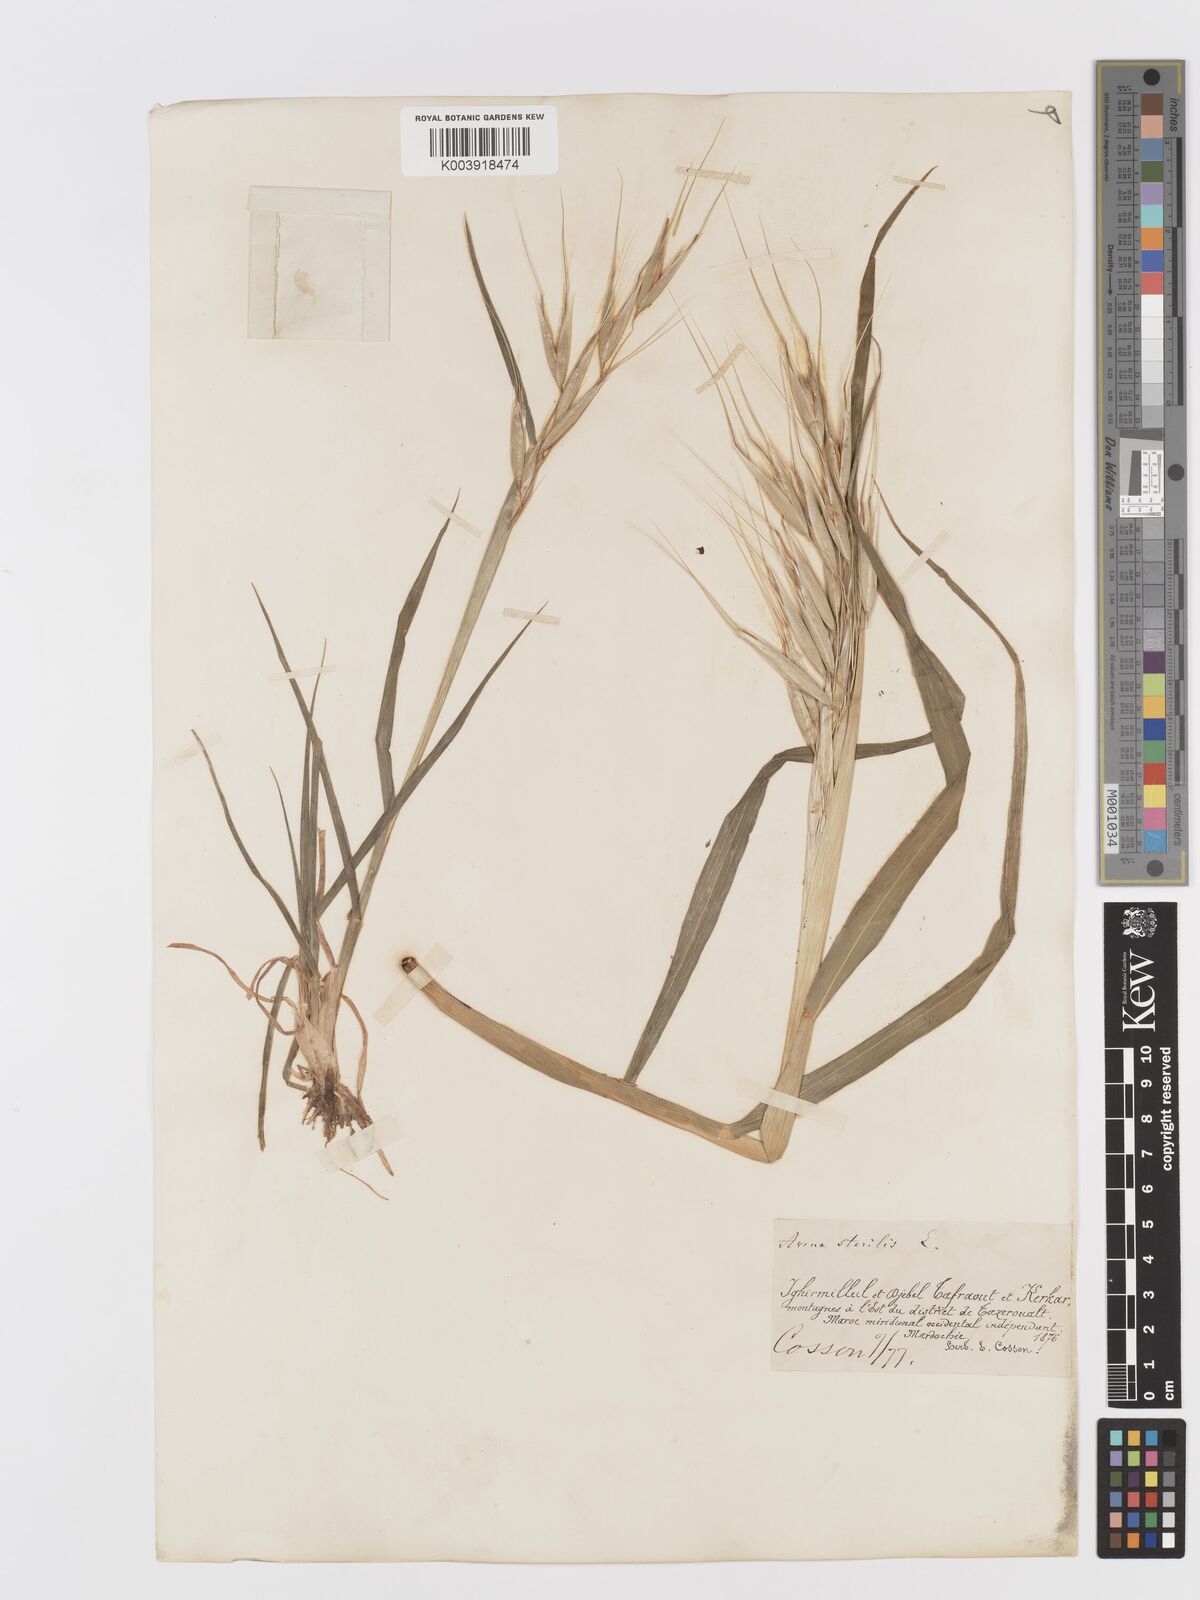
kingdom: Plantae
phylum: Tracheophyta
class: Liliopsida
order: Poales
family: Poaceae
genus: Avena
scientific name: Avena sterilis
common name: Animated oat
